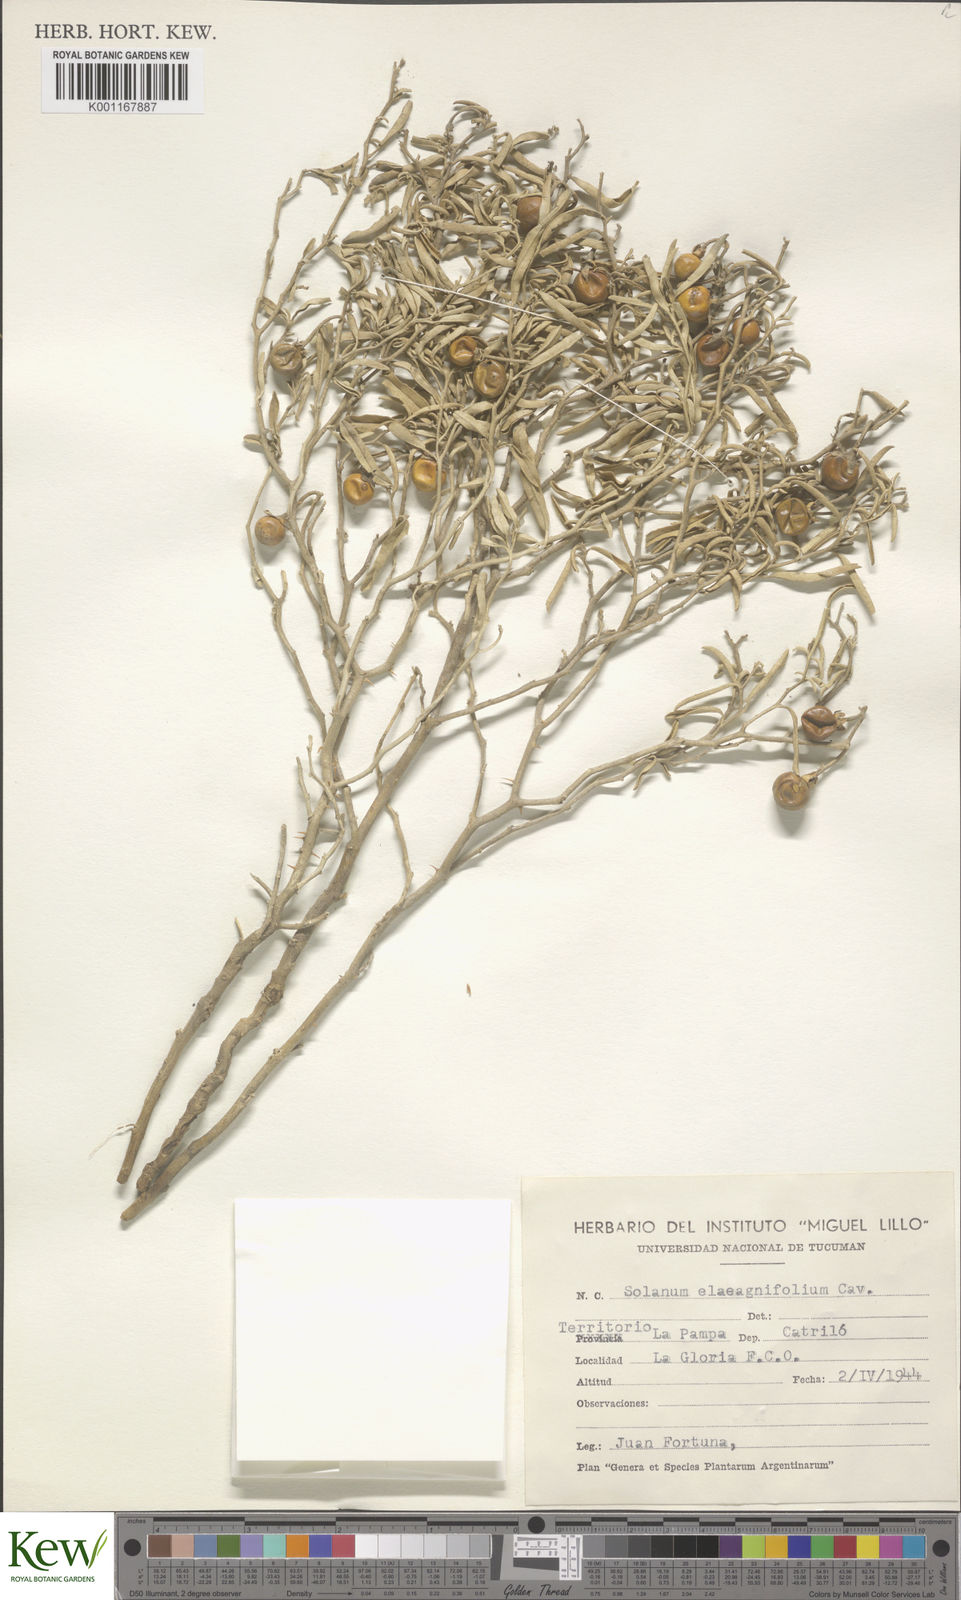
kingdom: Plantae
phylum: Tracheophyta
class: Magnoliopsida
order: Solanales
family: Solanaceae
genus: Solanum
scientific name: Solanum elaeagnifolium
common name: Silverleaf nightshade
